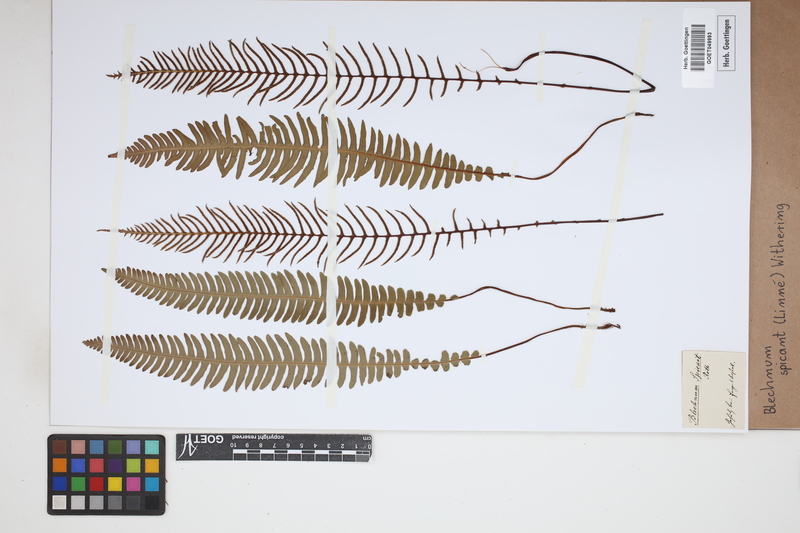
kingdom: Plantae
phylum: Tracheophyta
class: Polypodiopsida
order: Polypodiales
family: Blechnaceae
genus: Struthiopteris
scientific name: Struthiopteris spicant
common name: Deer fern
